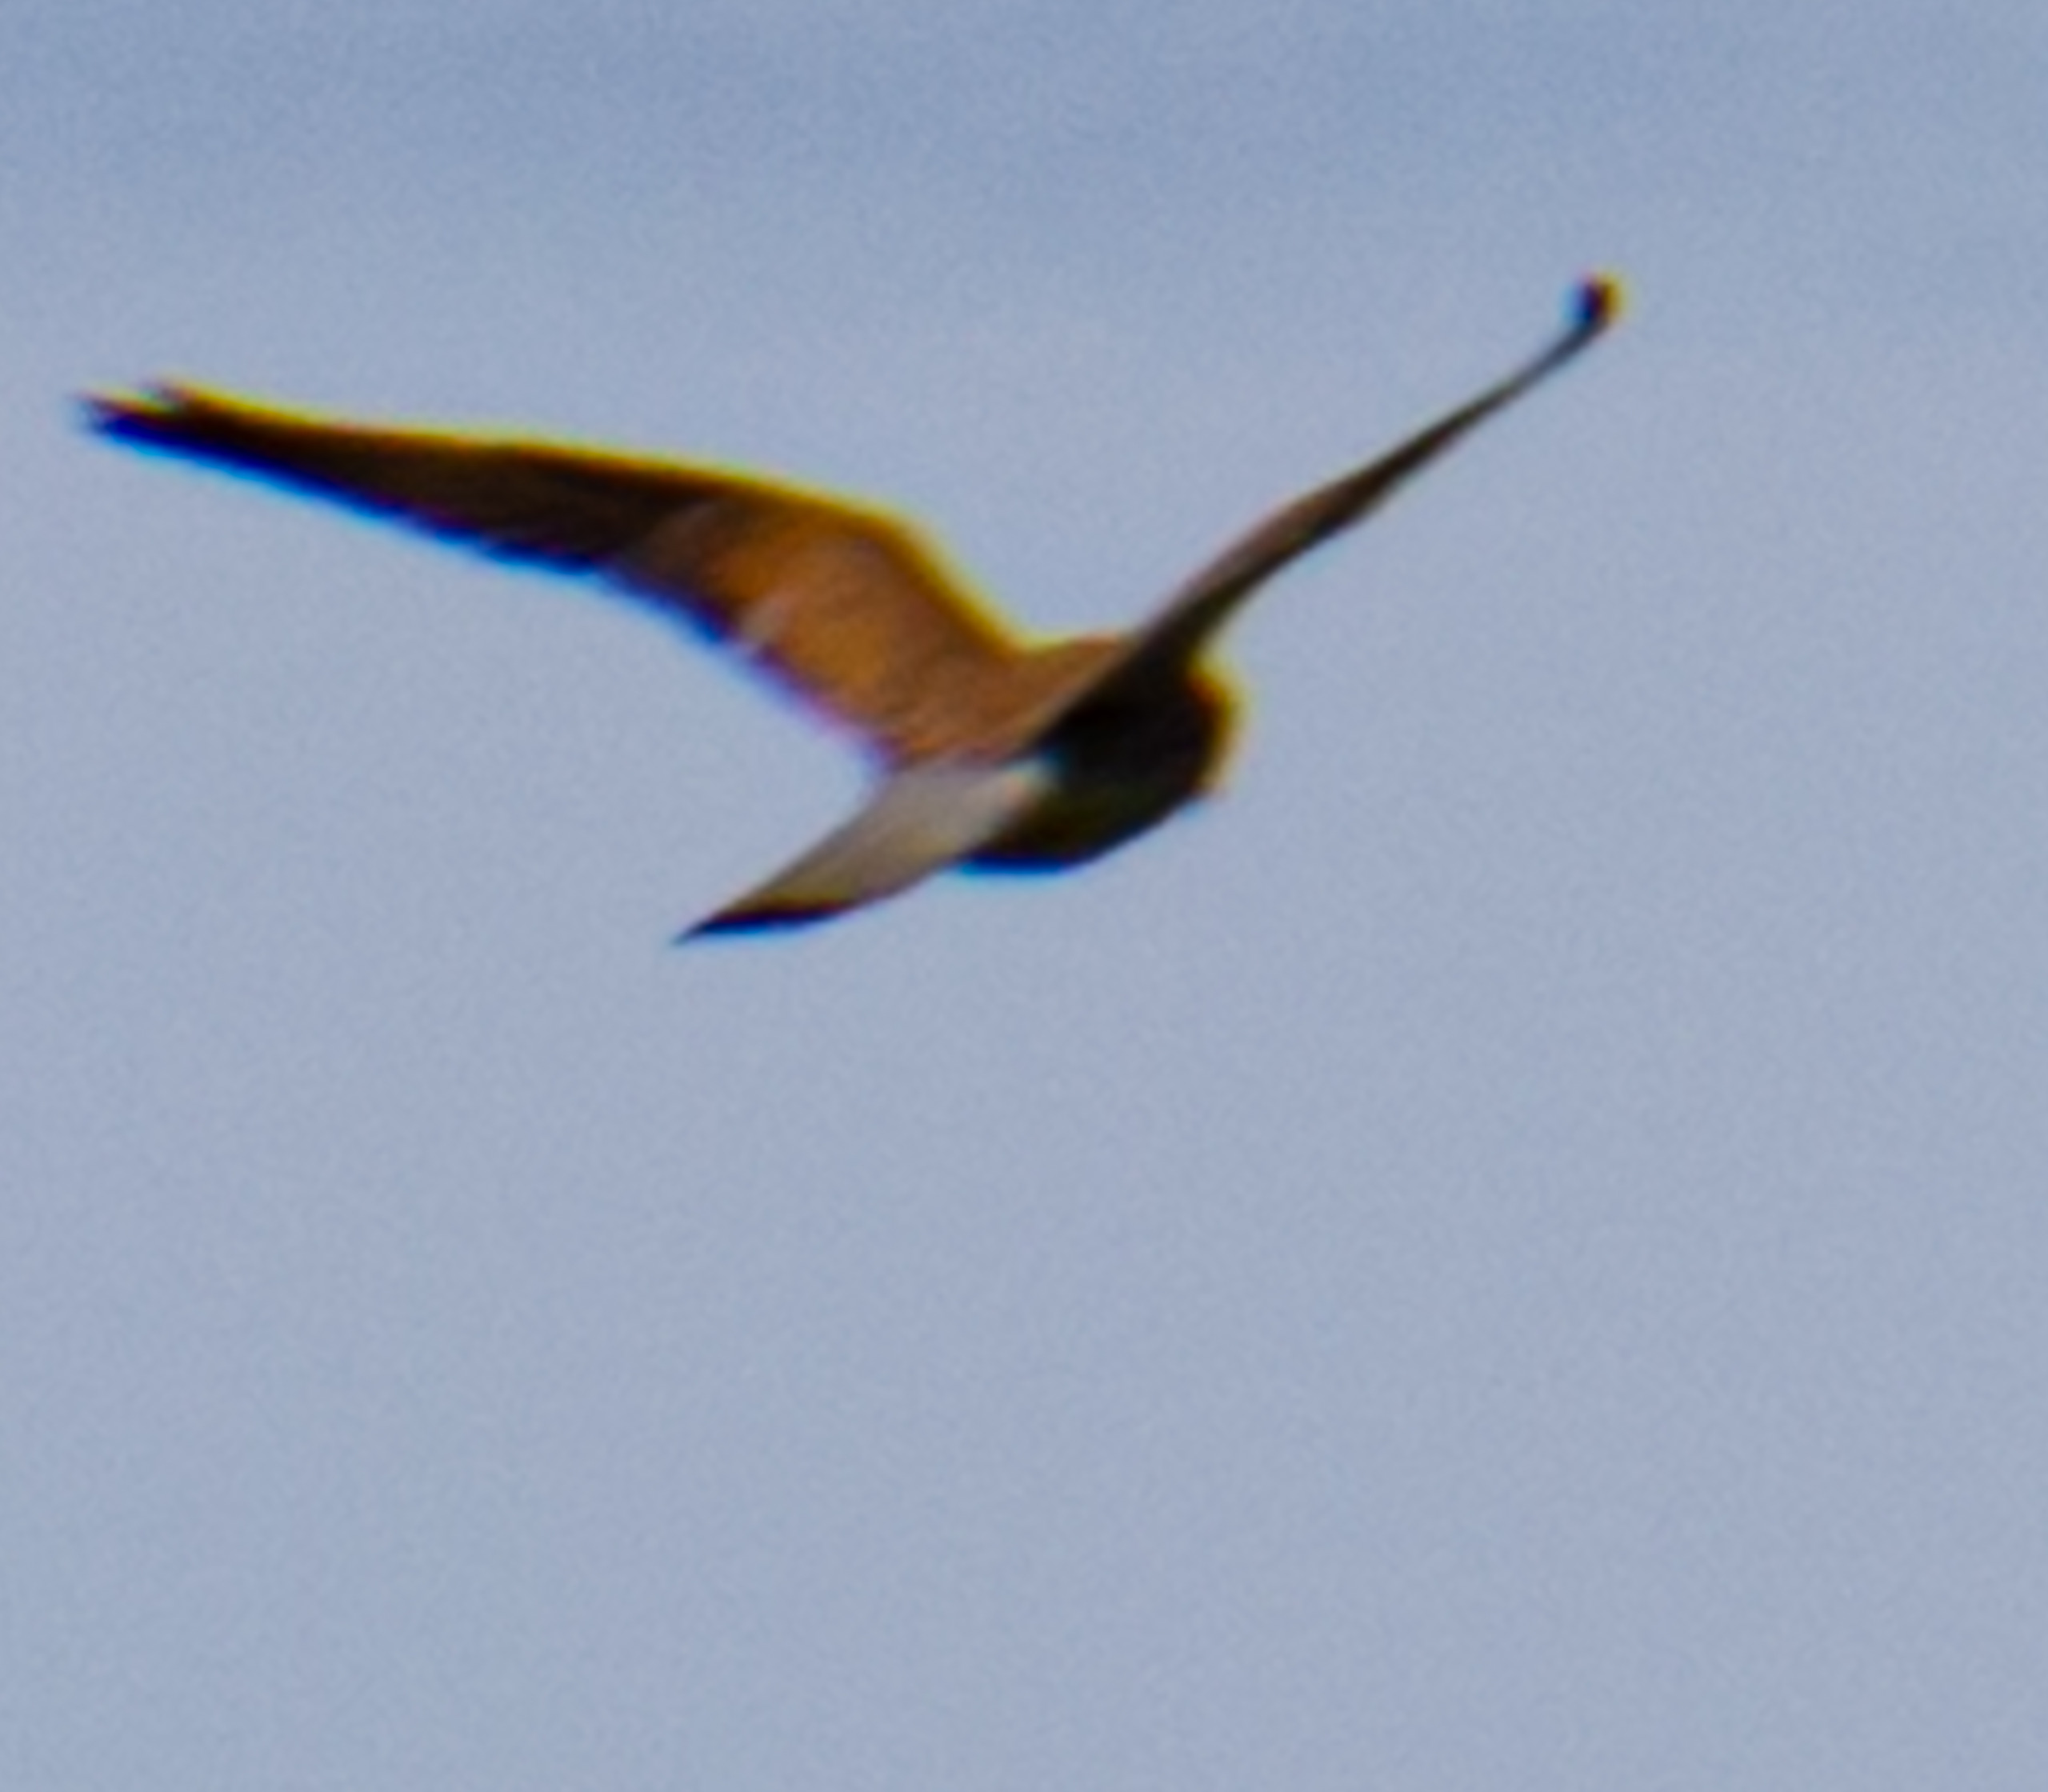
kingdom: Animalia
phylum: Chordata
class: Aves
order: Falconiformes
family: Falconidae
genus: Falco
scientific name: Falco tinnunculus
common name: Tårnfalk
